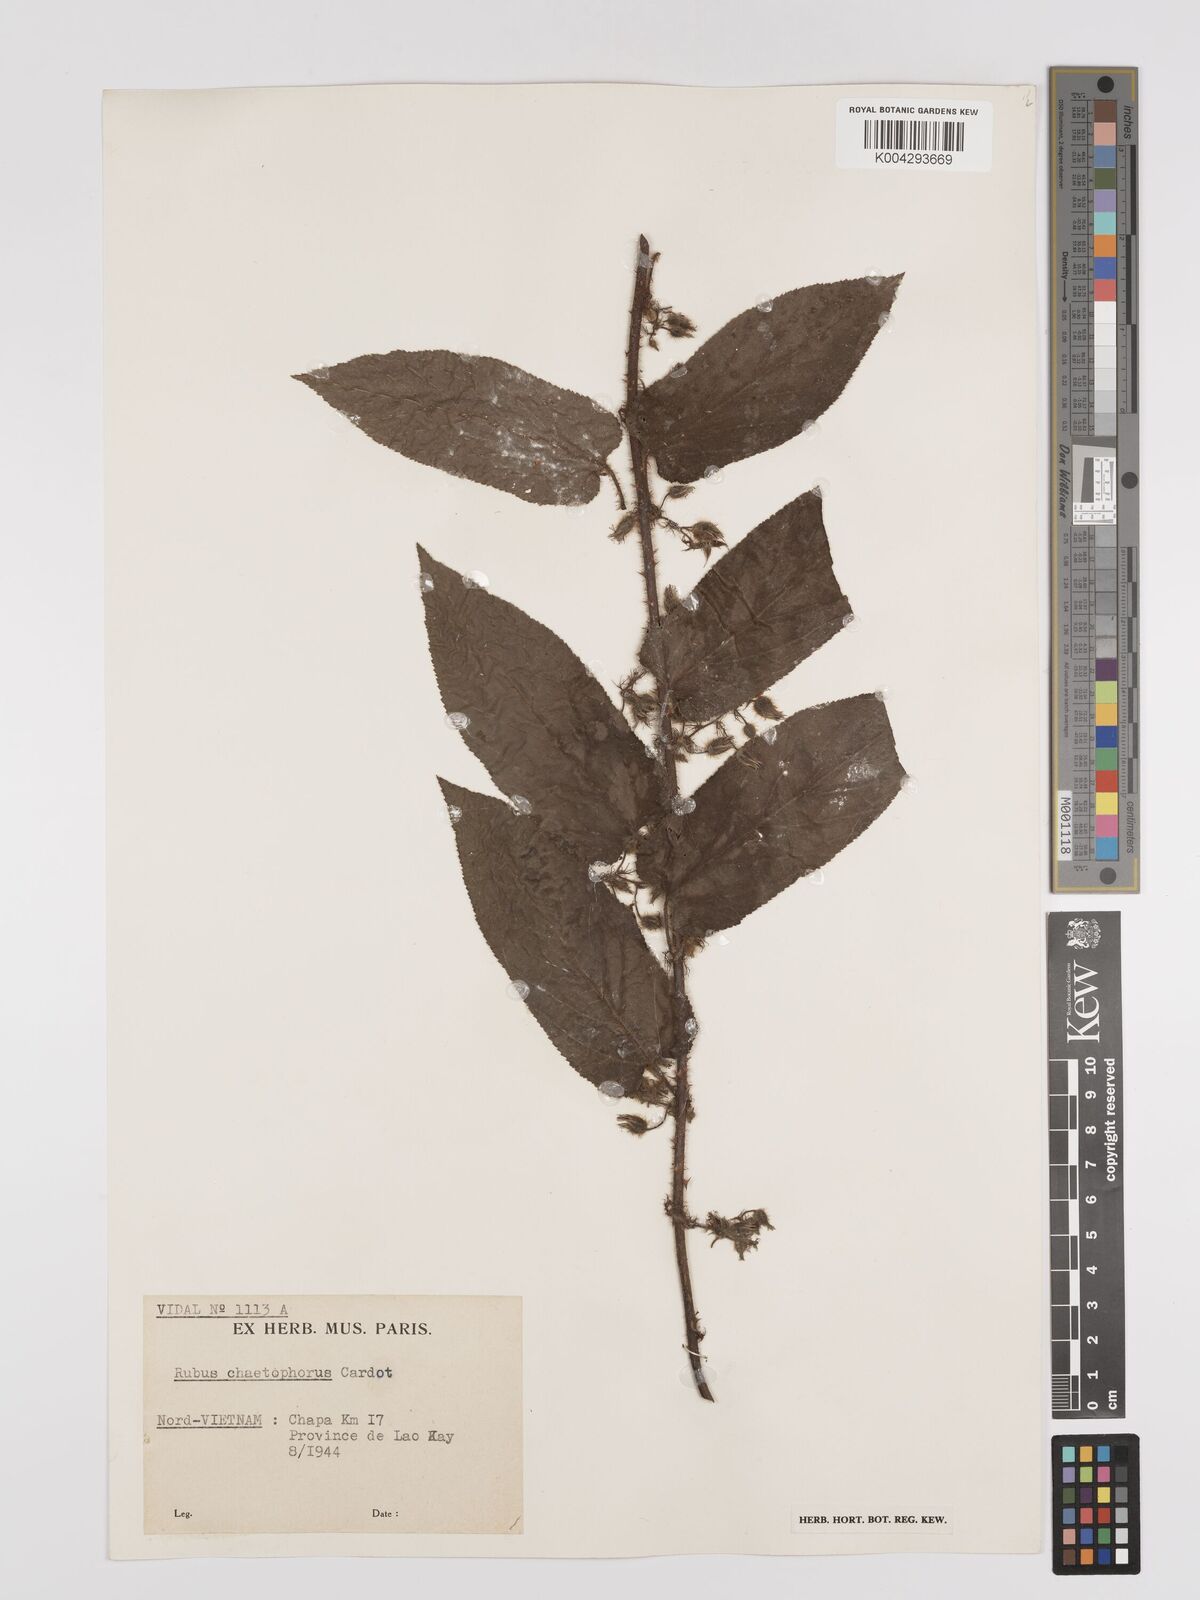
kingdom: Plantae
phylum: Tracheophyta
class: Magnoliopsida
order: Rosales
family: Rosaceae
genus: Rubus
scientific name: Rubus chaetophorus
